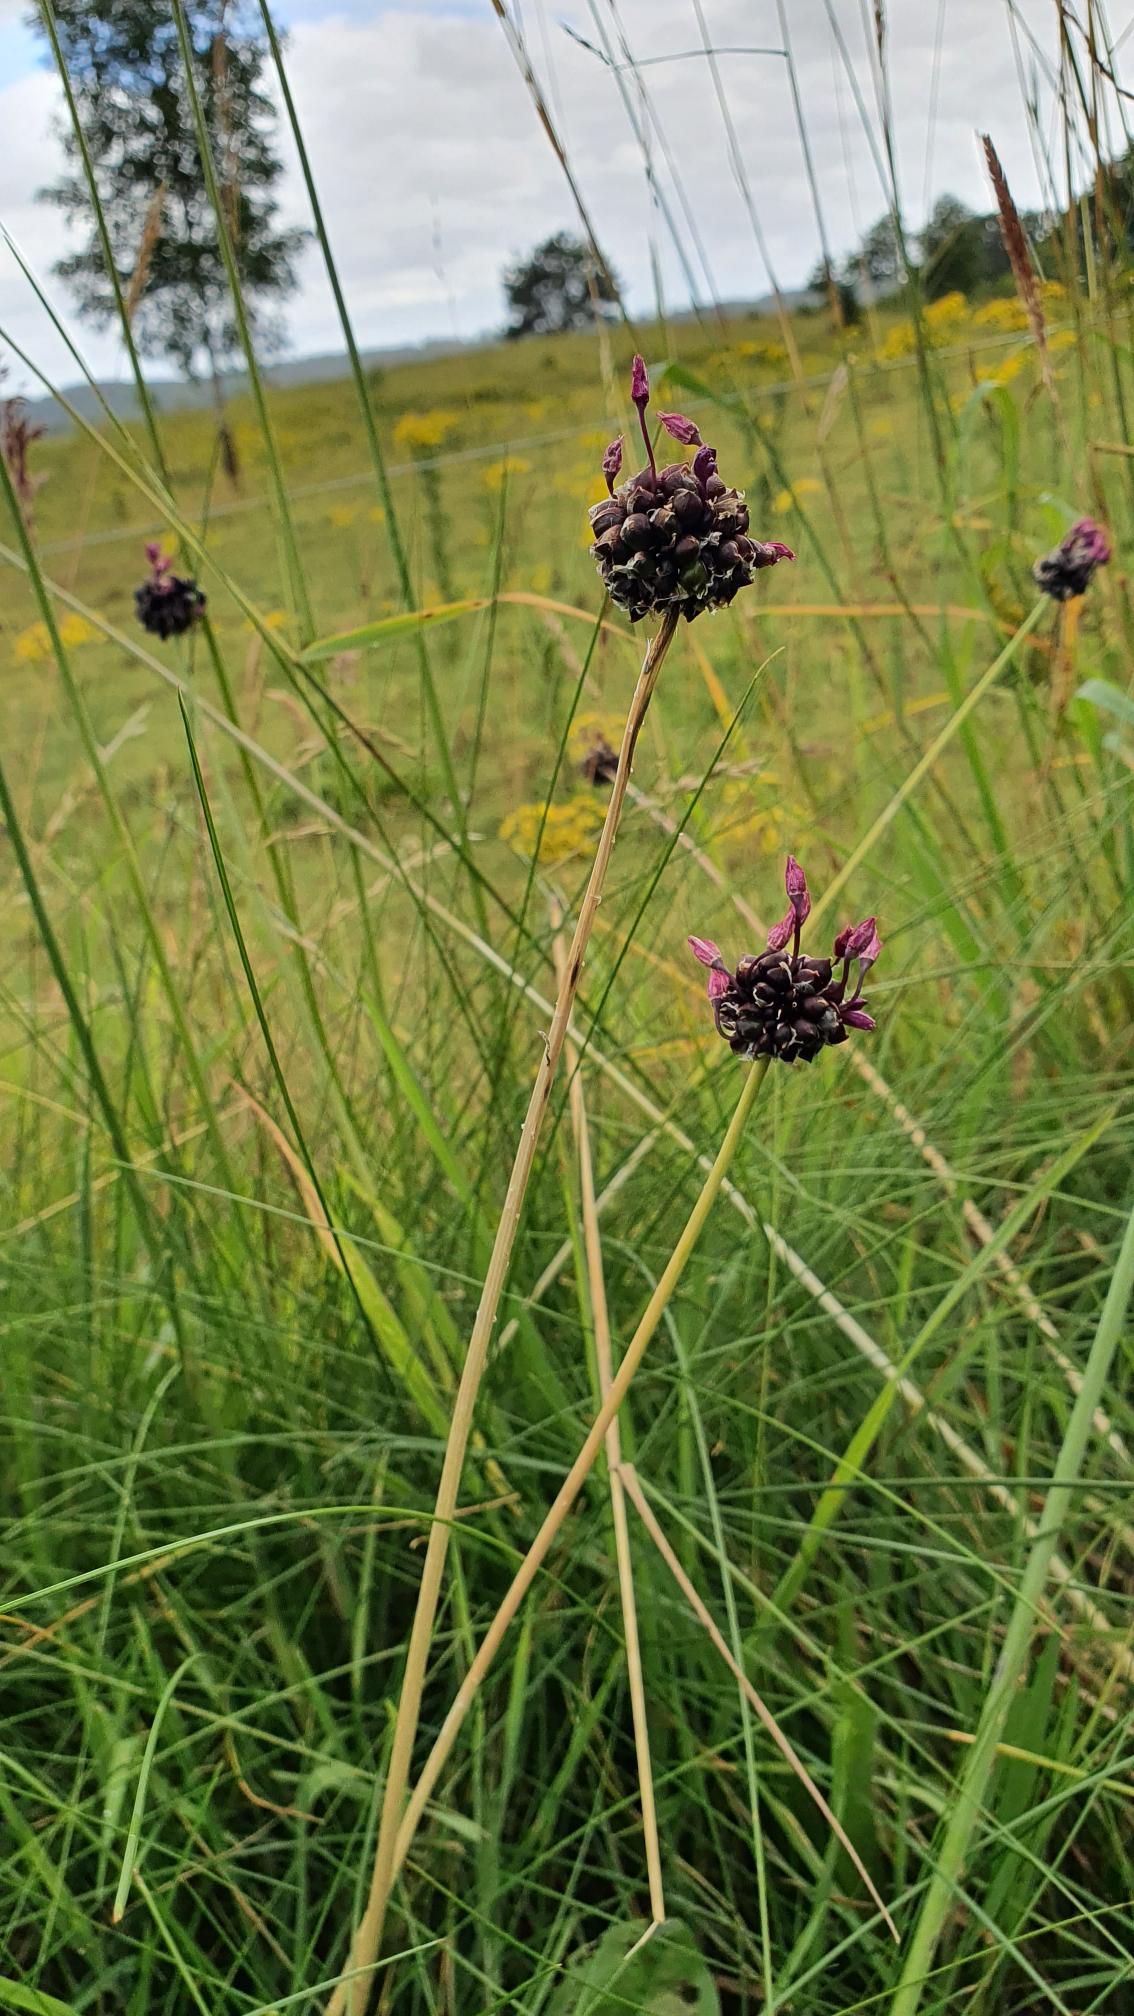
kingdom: Plantae
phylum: Tracheophyta
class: Liliopsida
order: Asparagales
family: Amaryllidaceae
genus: Allium
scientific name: Allium scorodoprasum
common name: Skov-løg
